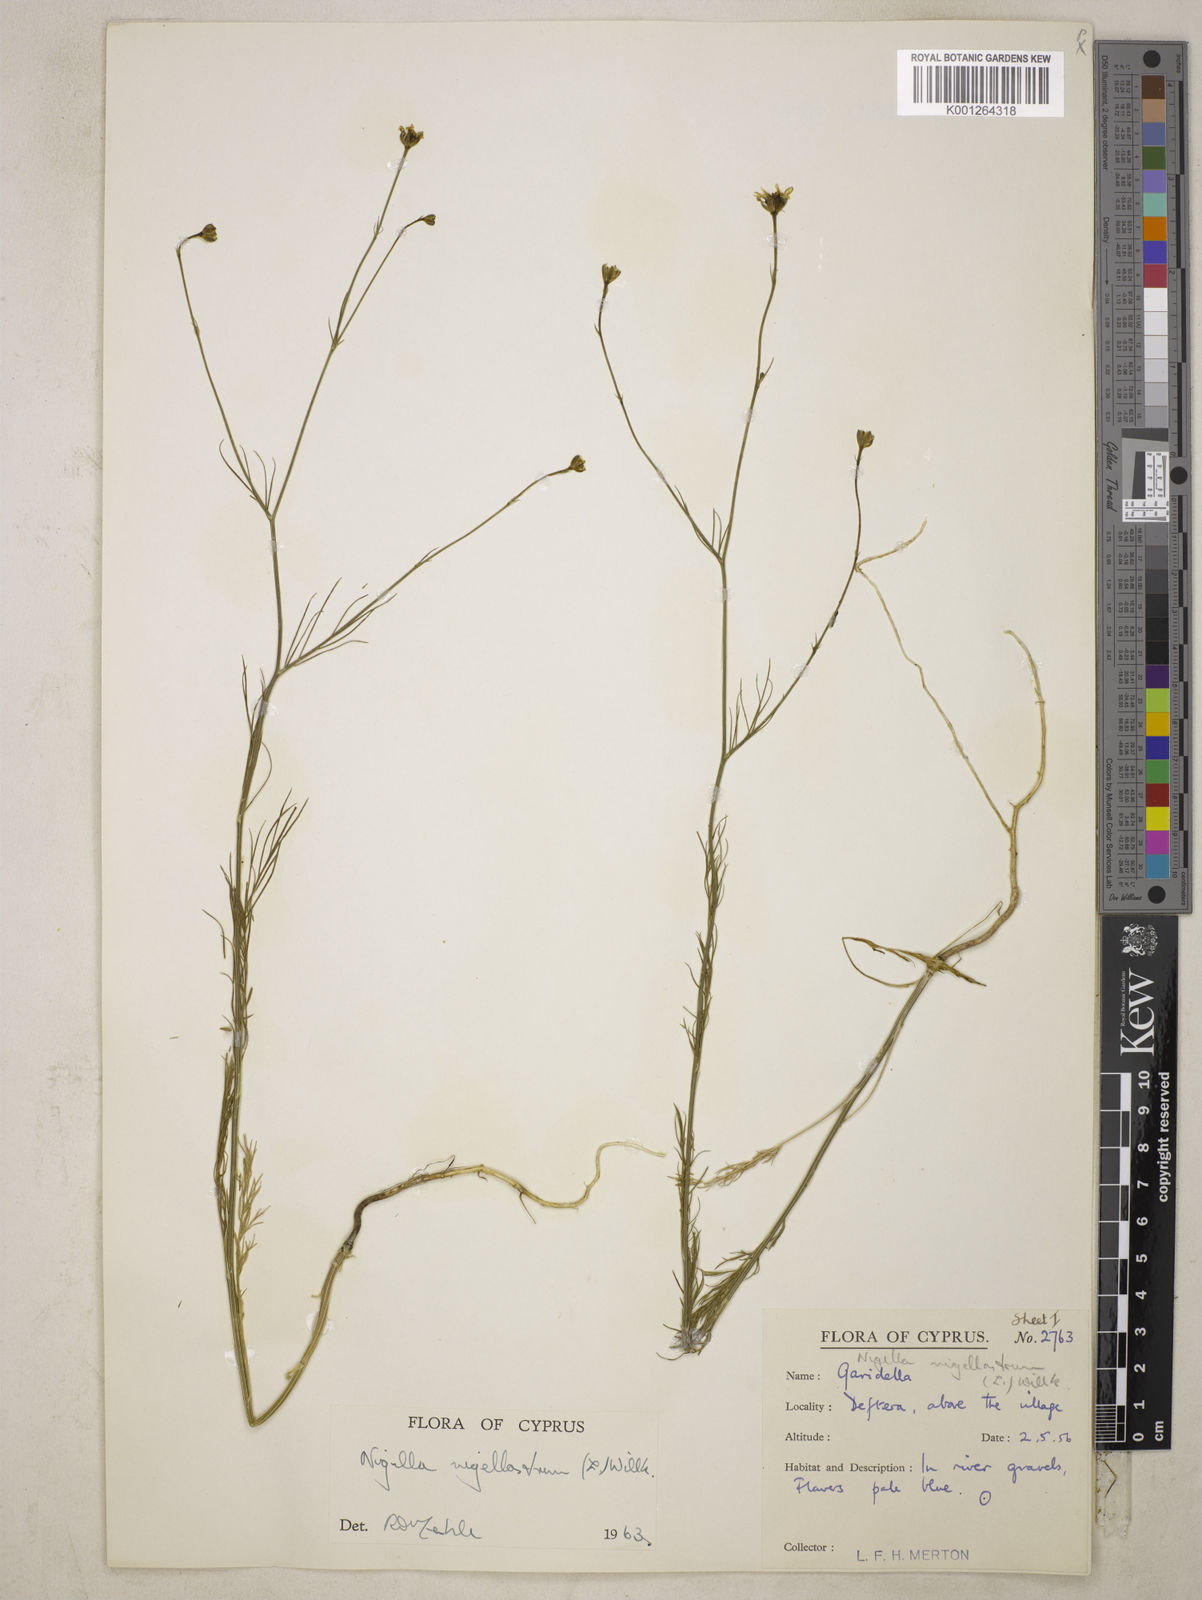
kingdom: Plantae
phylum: Tracheophyta
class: Magnoliopsida
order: Ranunculales
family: Ranunculaceae
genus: Garidella
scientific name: Garidella nigellastrum
